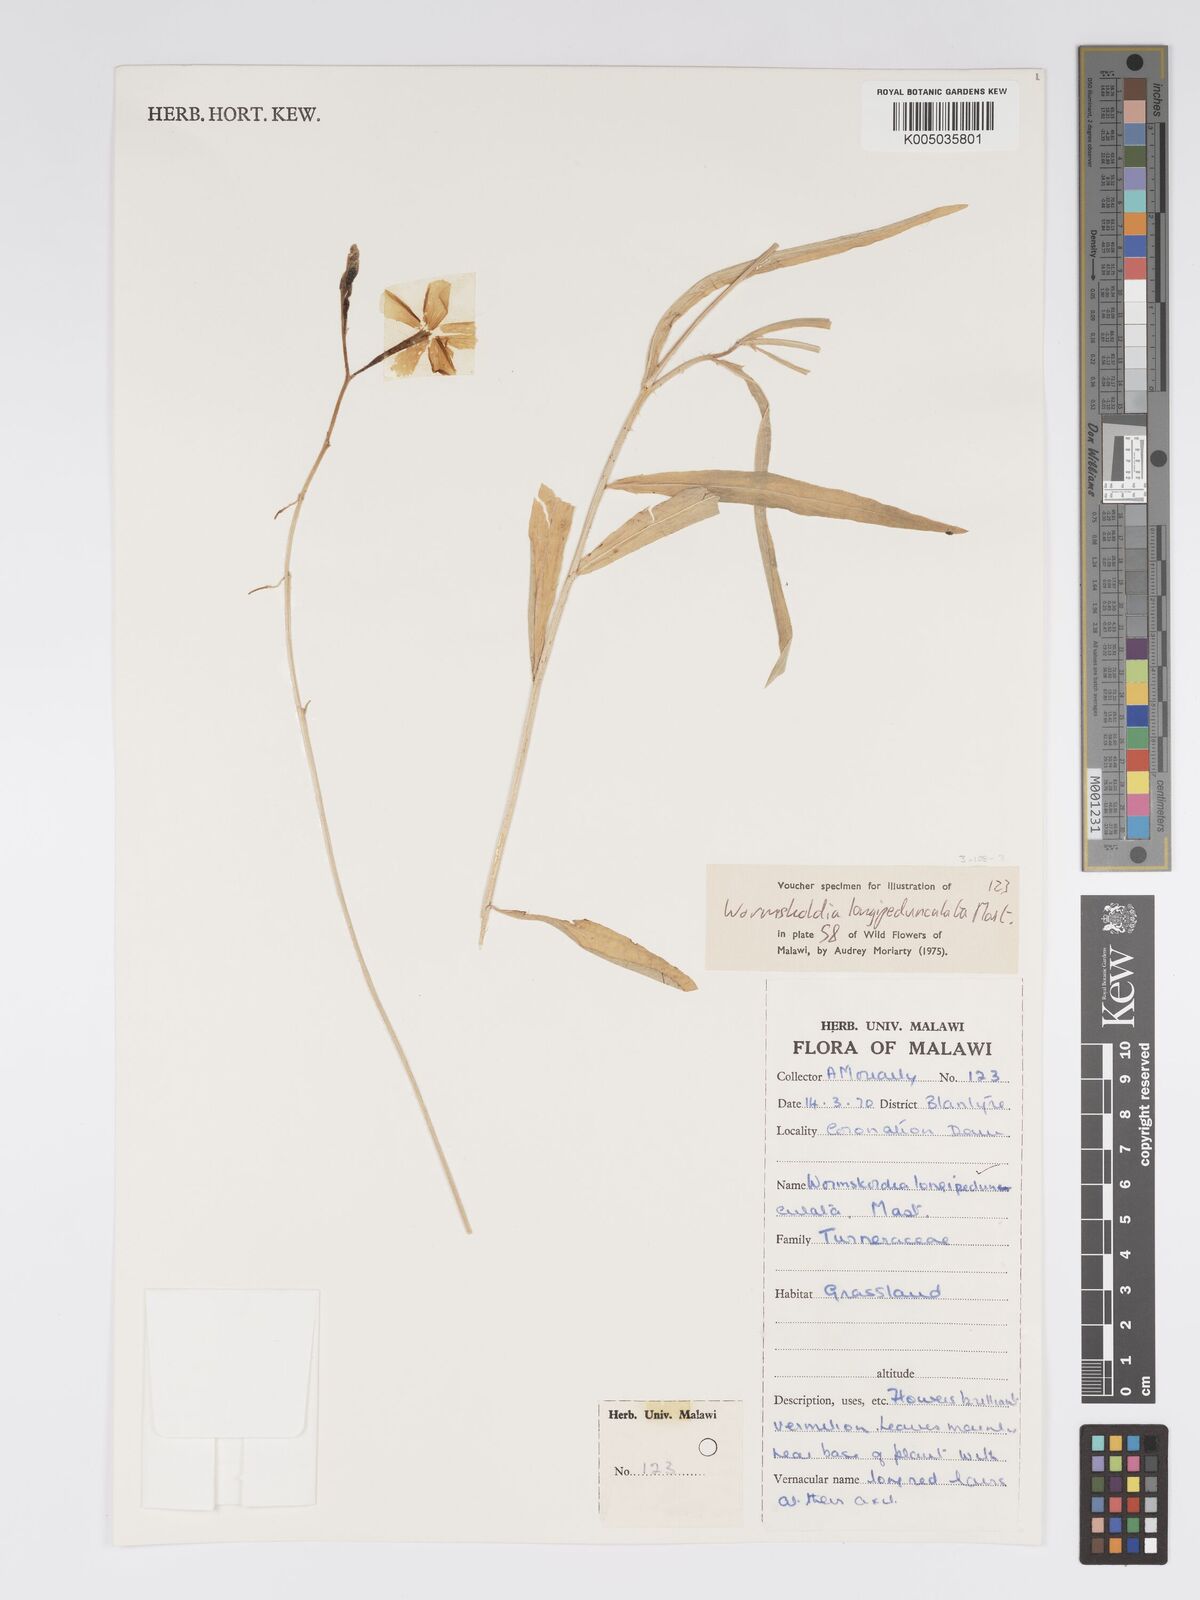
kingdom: Plantae
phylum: Tracheophyta
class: Magnoliopsida
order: Malpighiales
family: Turneraceae
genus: Tricliceras
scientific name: Tricliceras longepedunculatum
